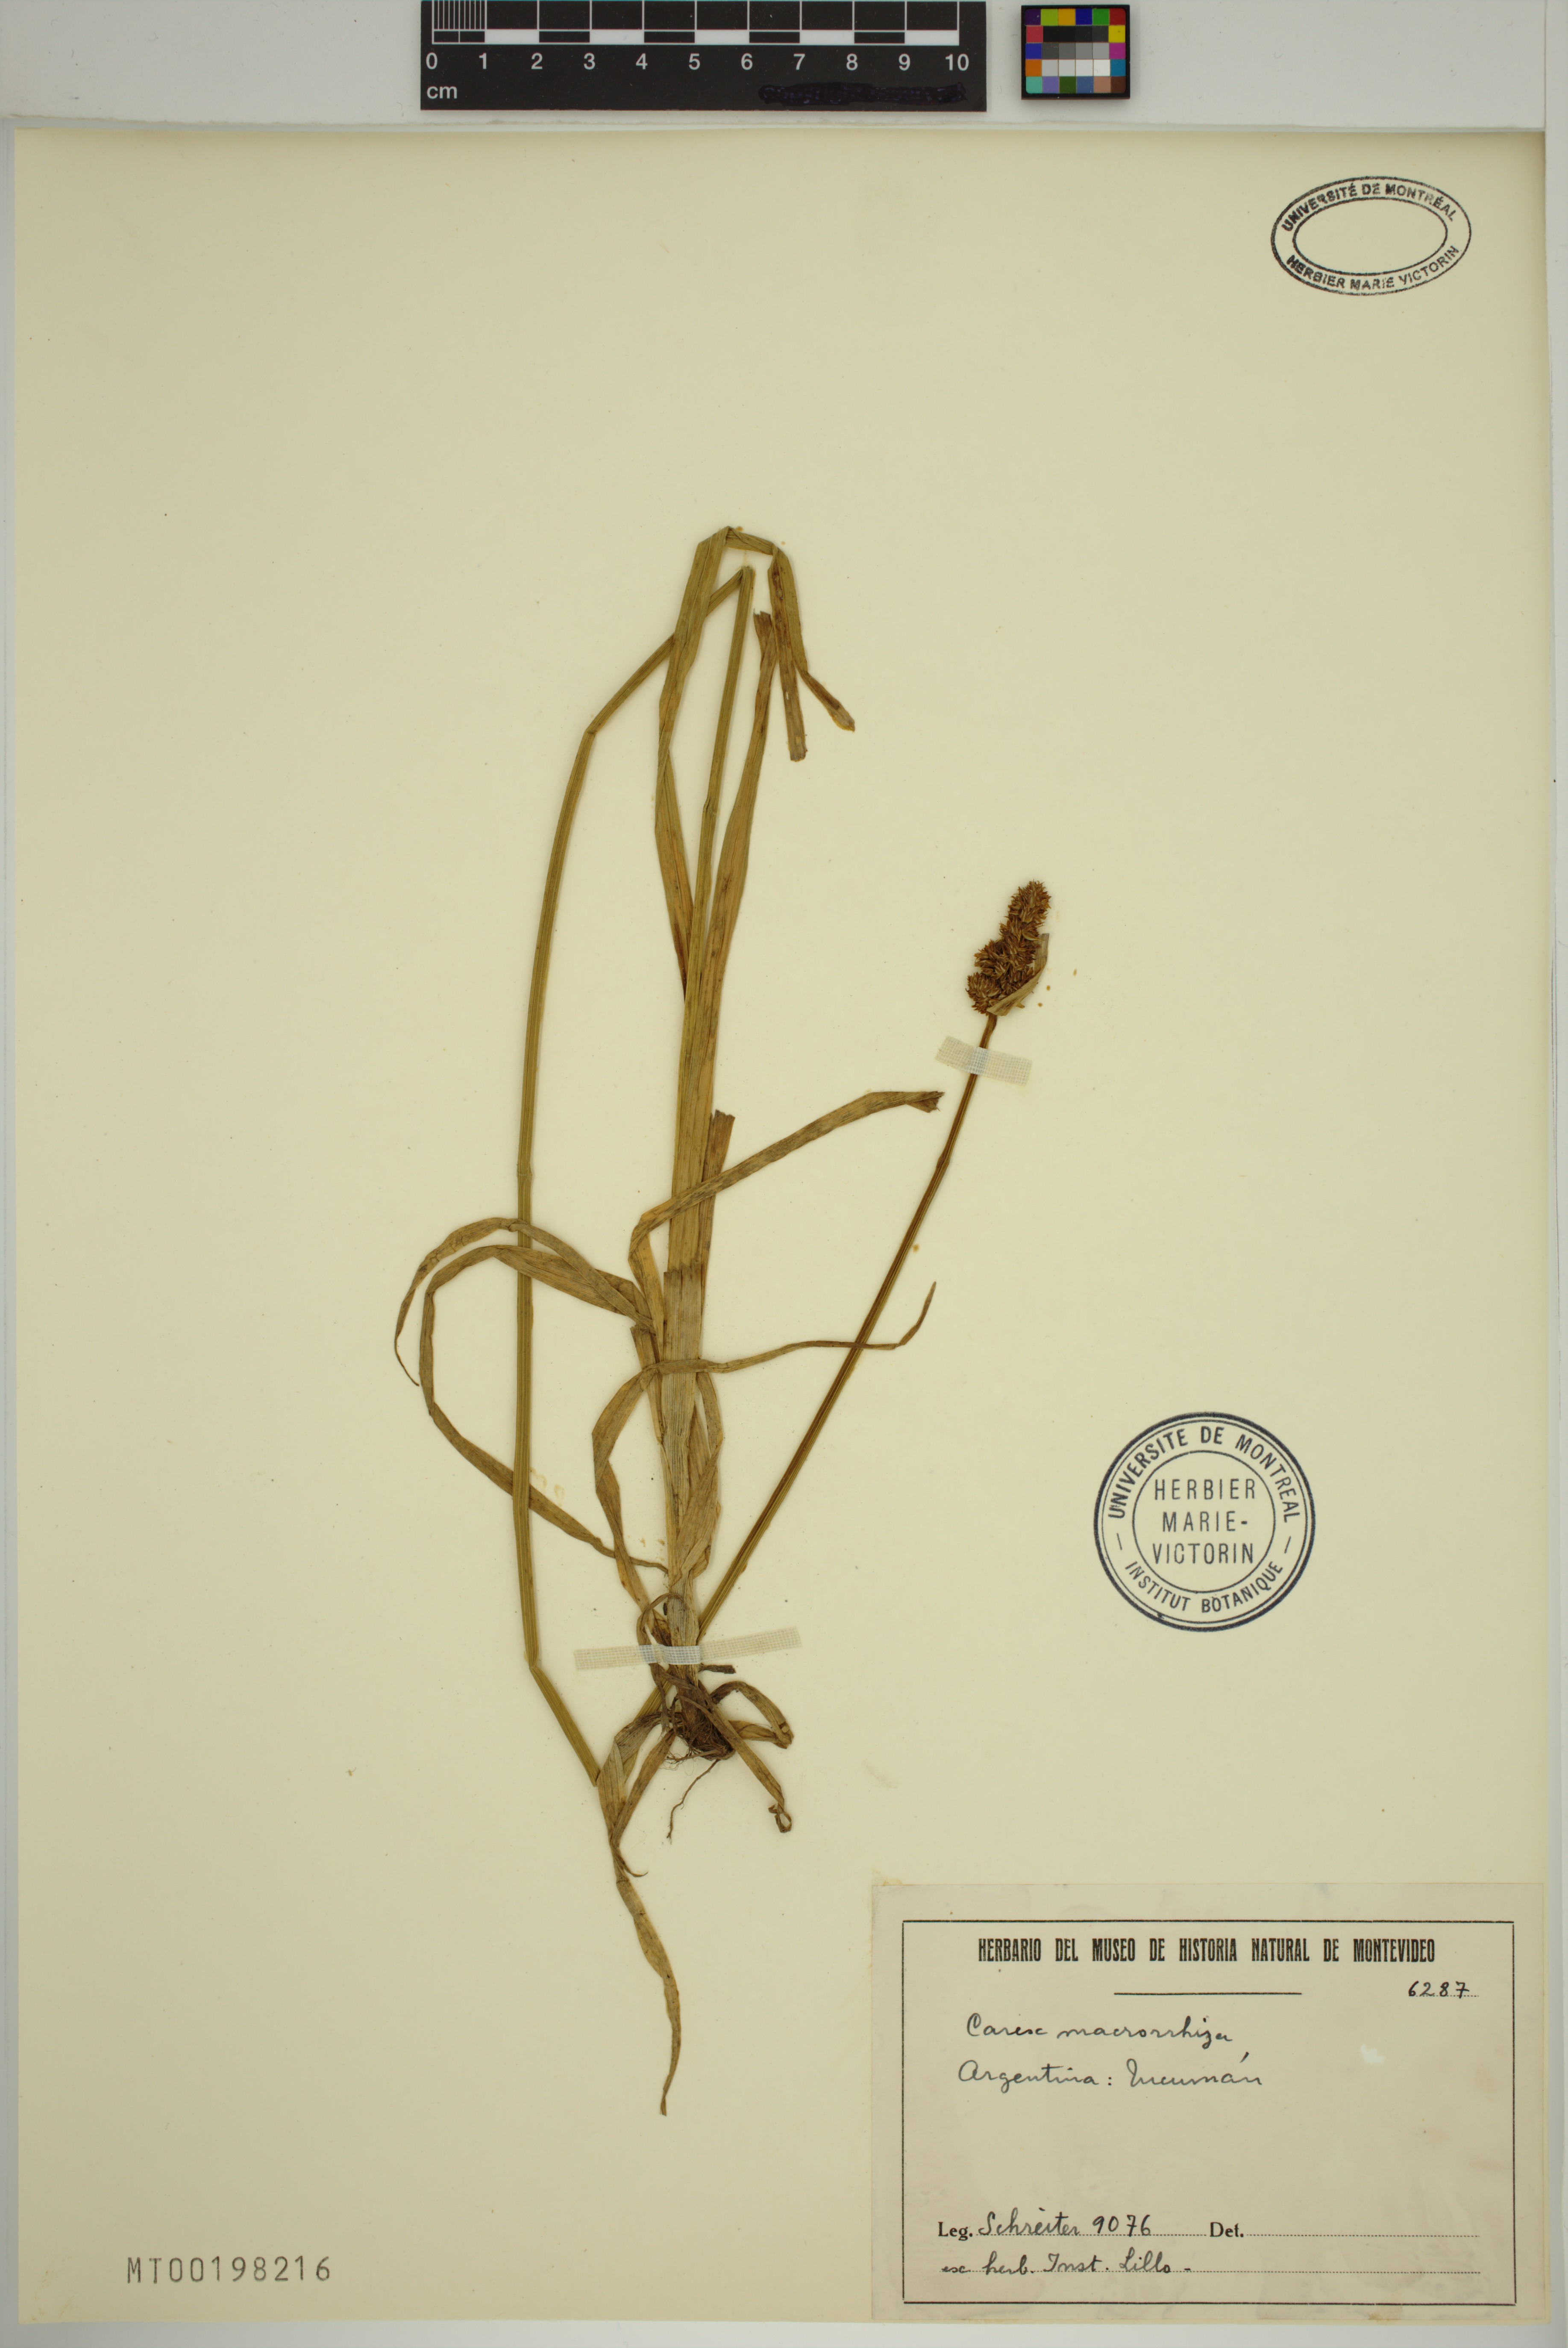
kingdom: Plantae
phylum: Tracheophyta
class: Liliopsida
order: Poales
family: Cyperaceae
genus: Carex
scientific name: Carex macrorrhiza
